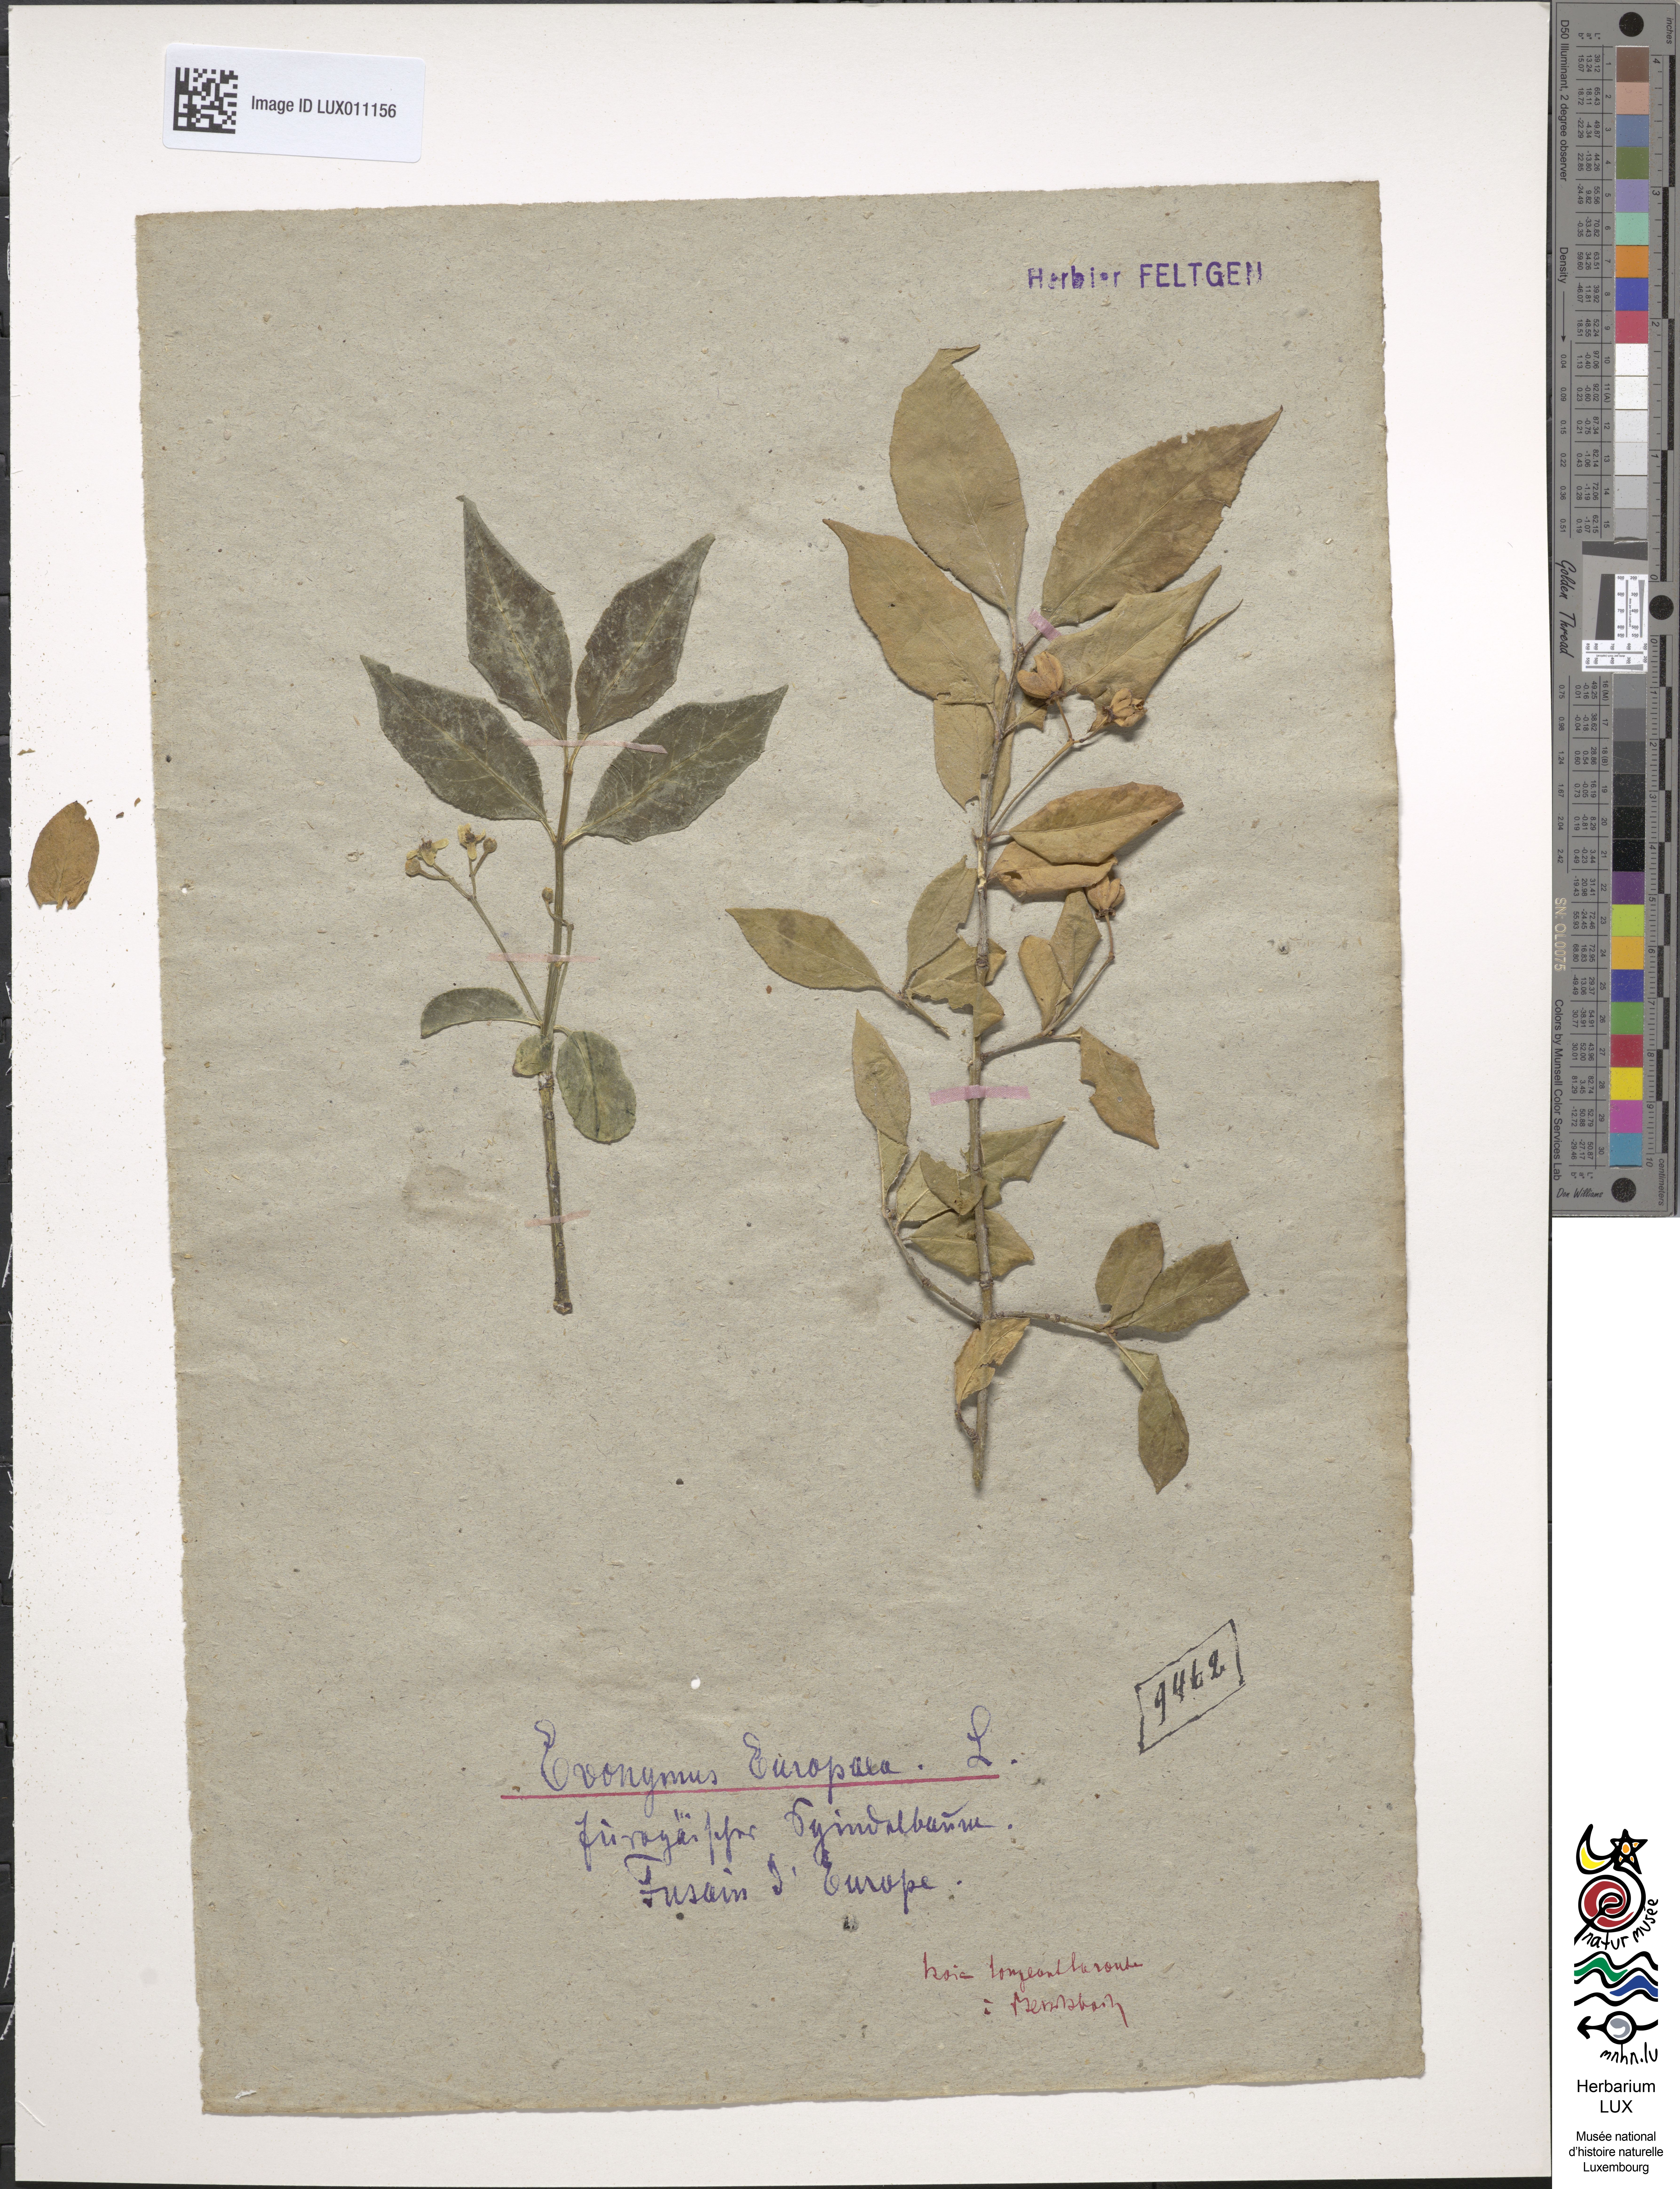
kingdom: Plantae
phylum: Tracheophyta
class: Magnoliopsida
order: Celastrales
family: Celastraceae
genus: Euonymus
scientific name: Euonymus europaeus
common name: Spindle
